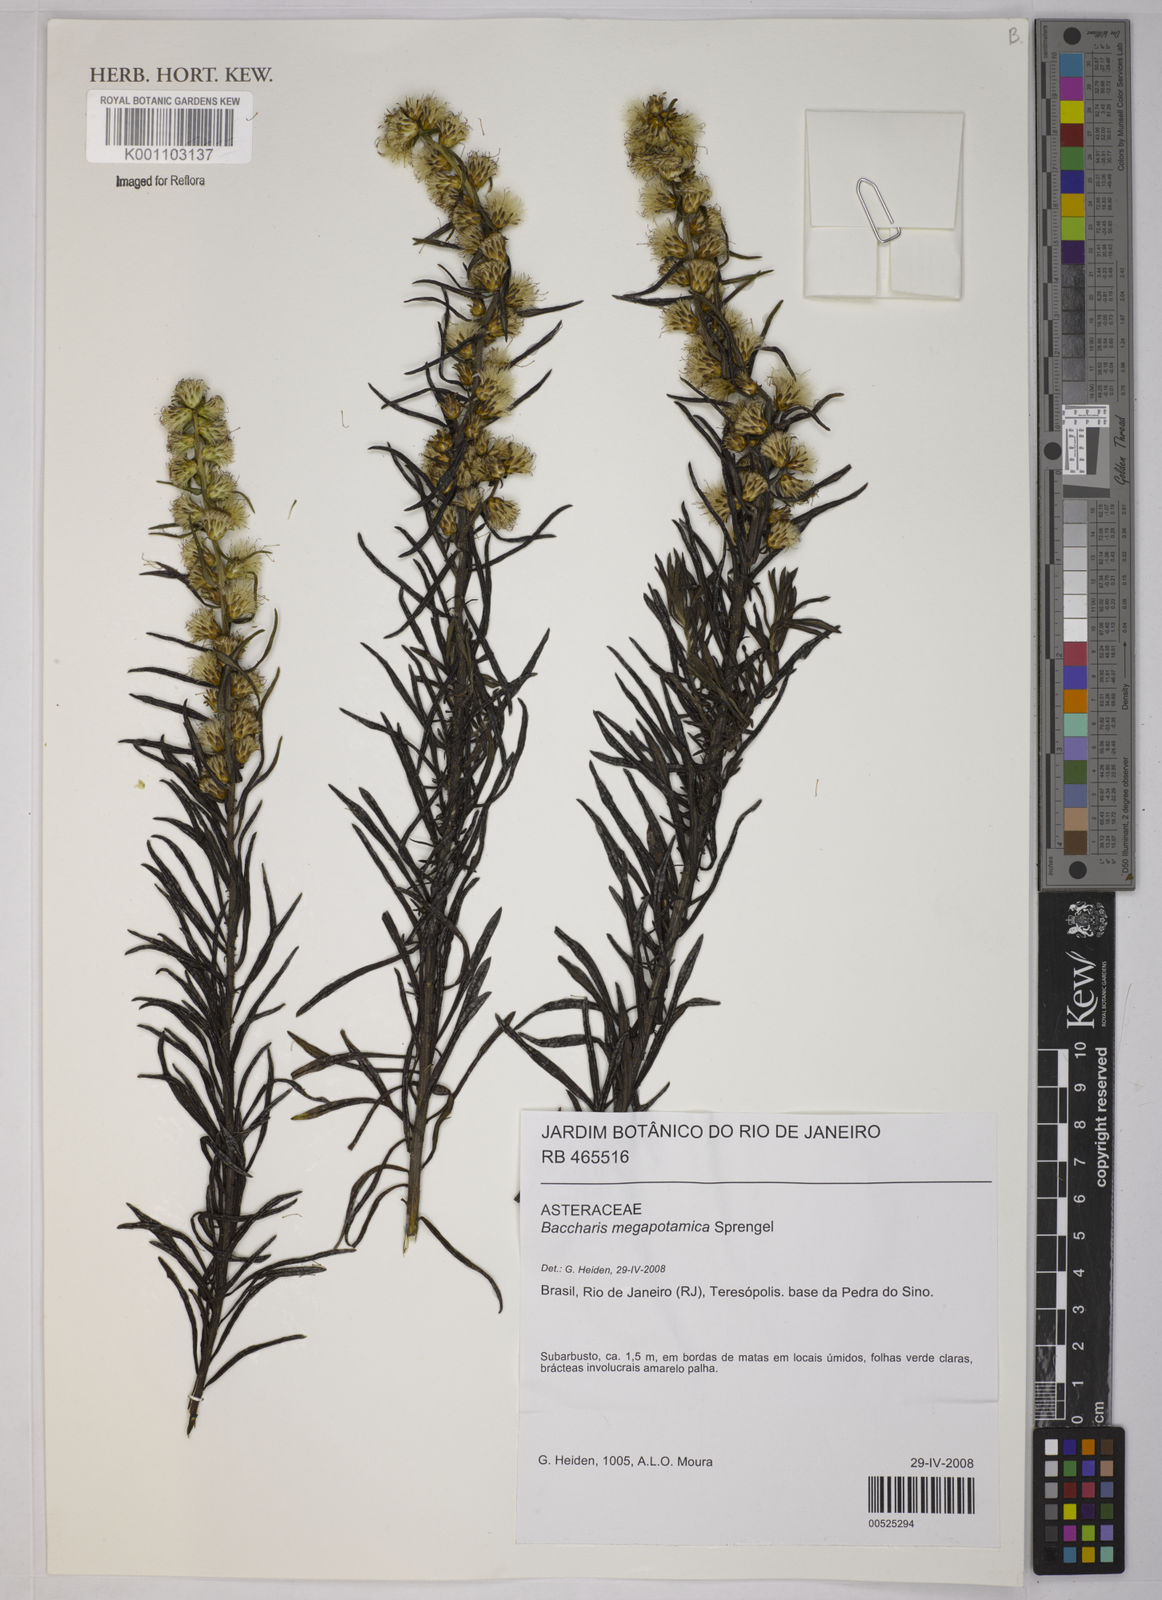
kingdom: Plantae
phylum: Tracheophyta
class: Magnoliopsida
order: Asterales
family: Asteraceae
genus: Baccharis
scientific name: Baccharis megapotamica
